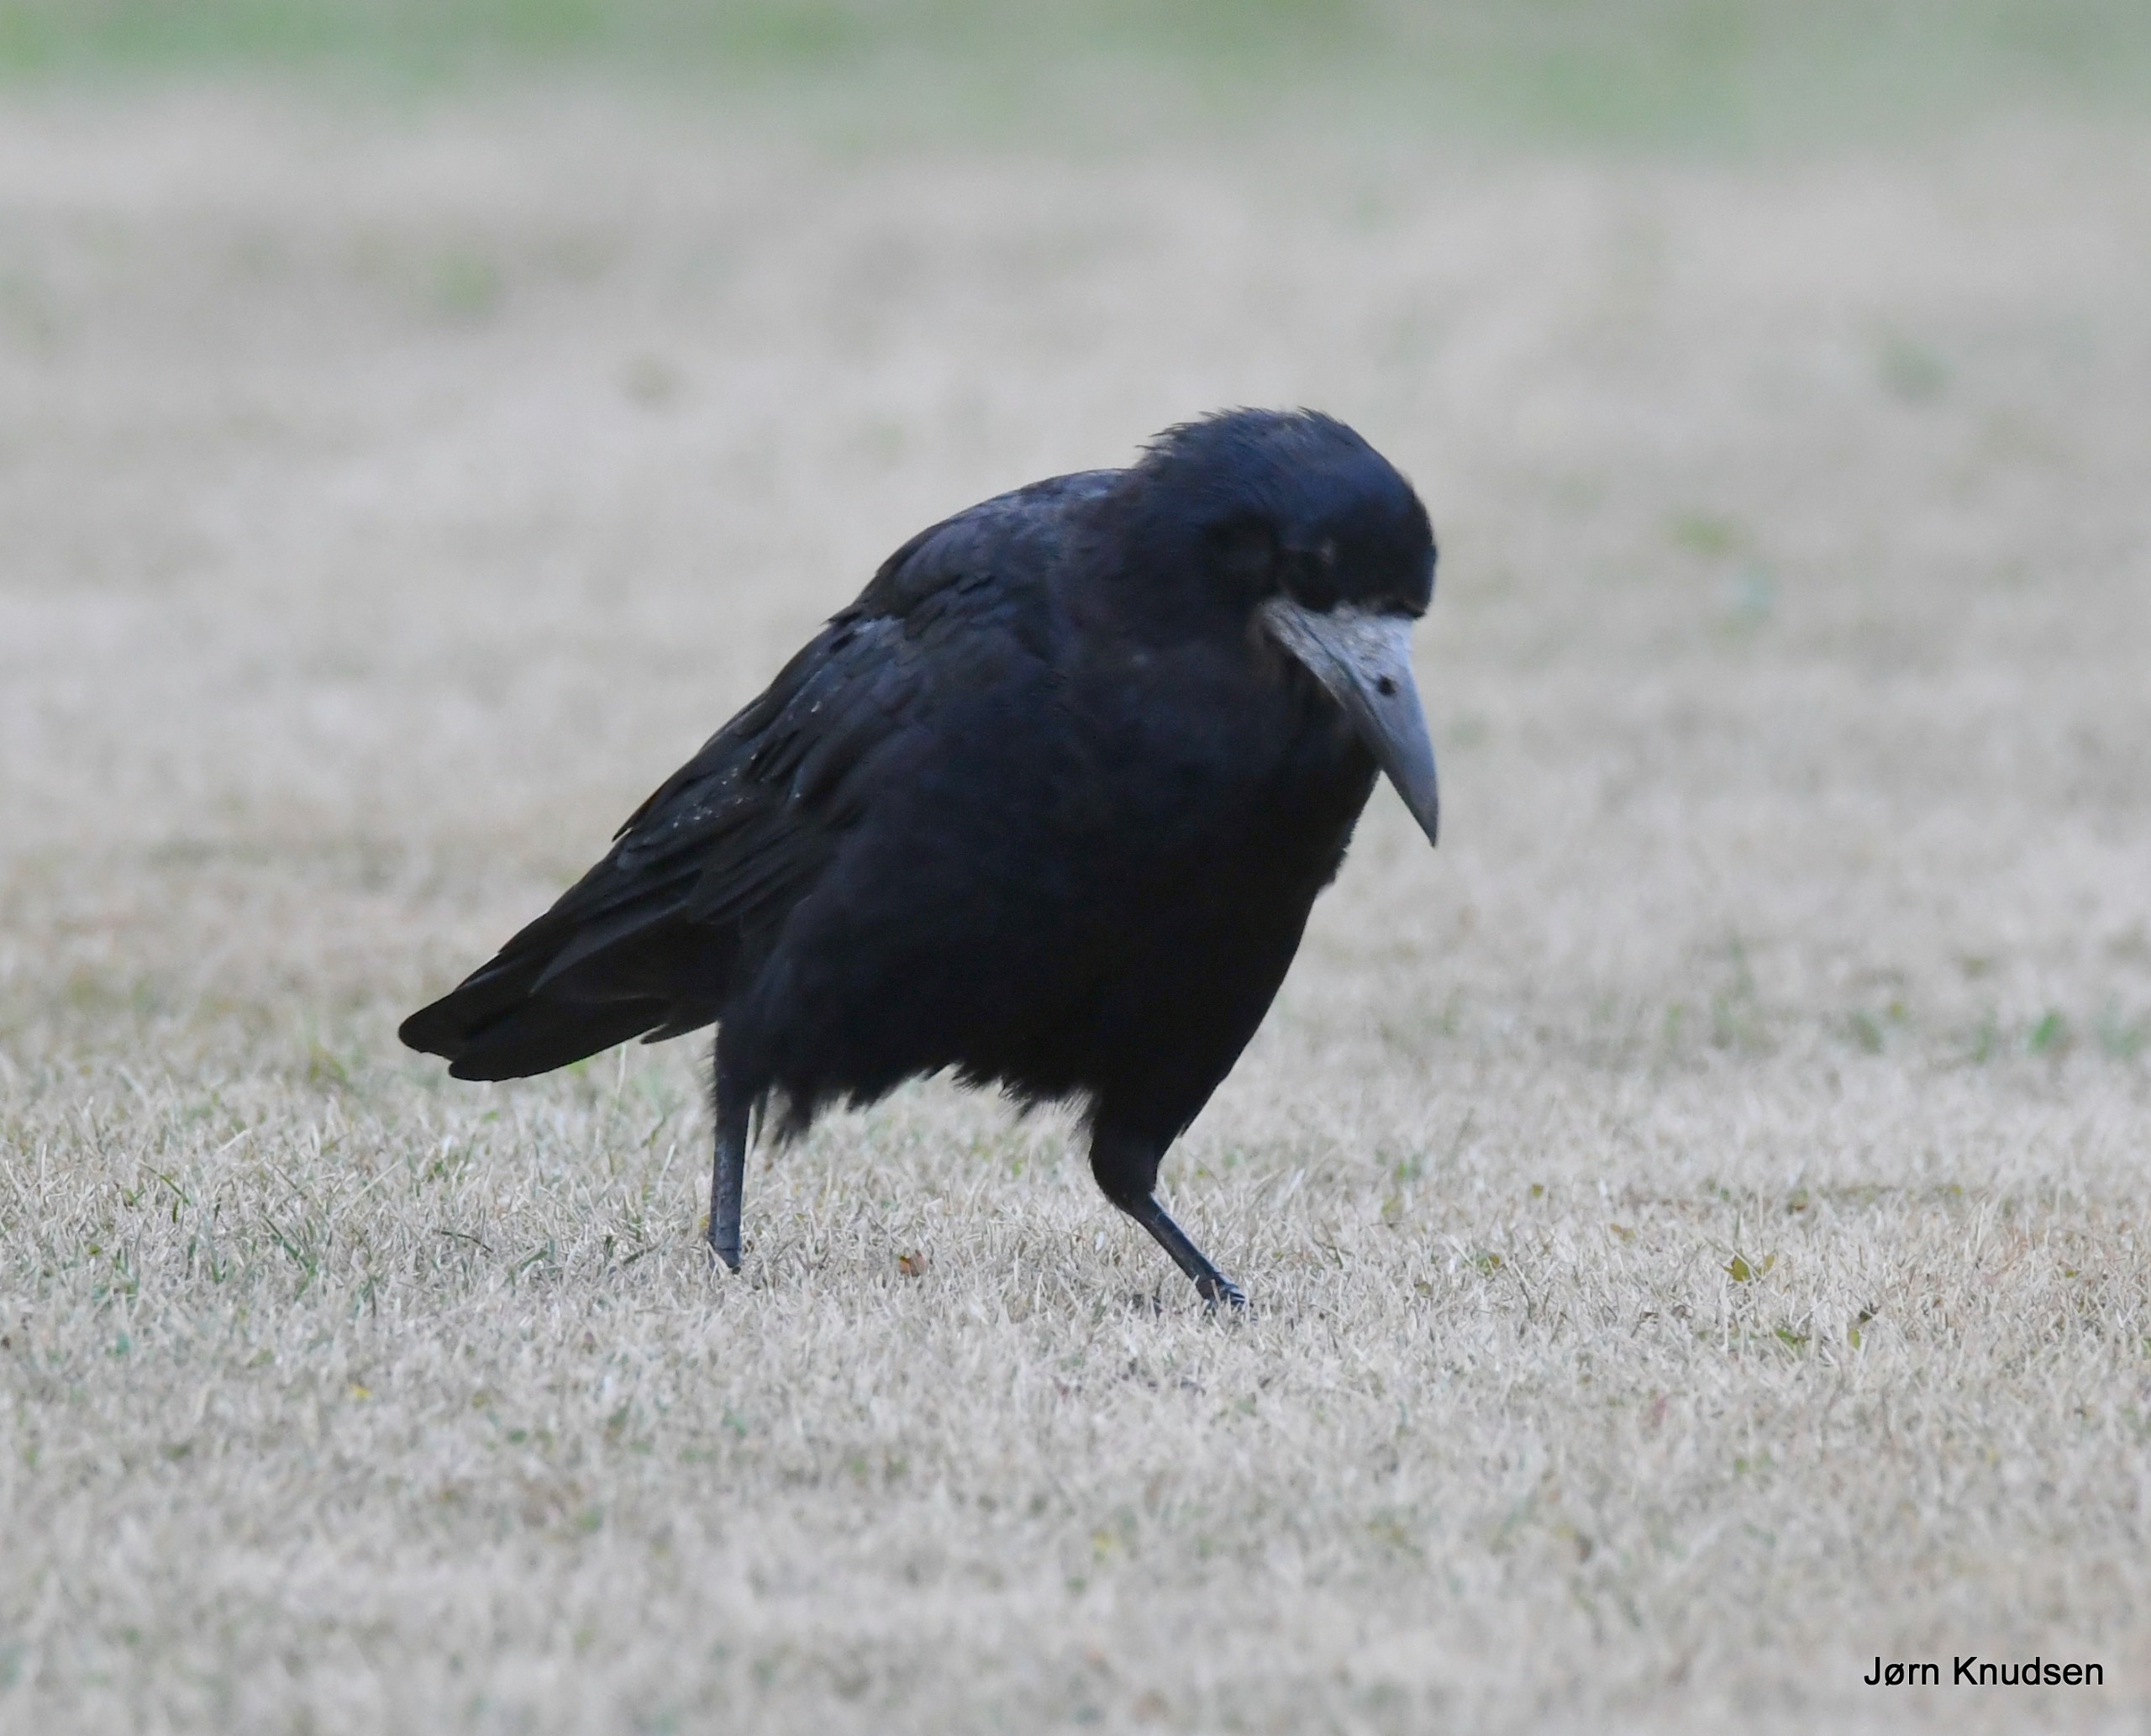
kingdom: Animalia
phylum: Chordata
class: Aves
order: Passeriformes
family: Corvidae
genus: Corvus
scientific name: Corvus frugilegus
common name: Råge
